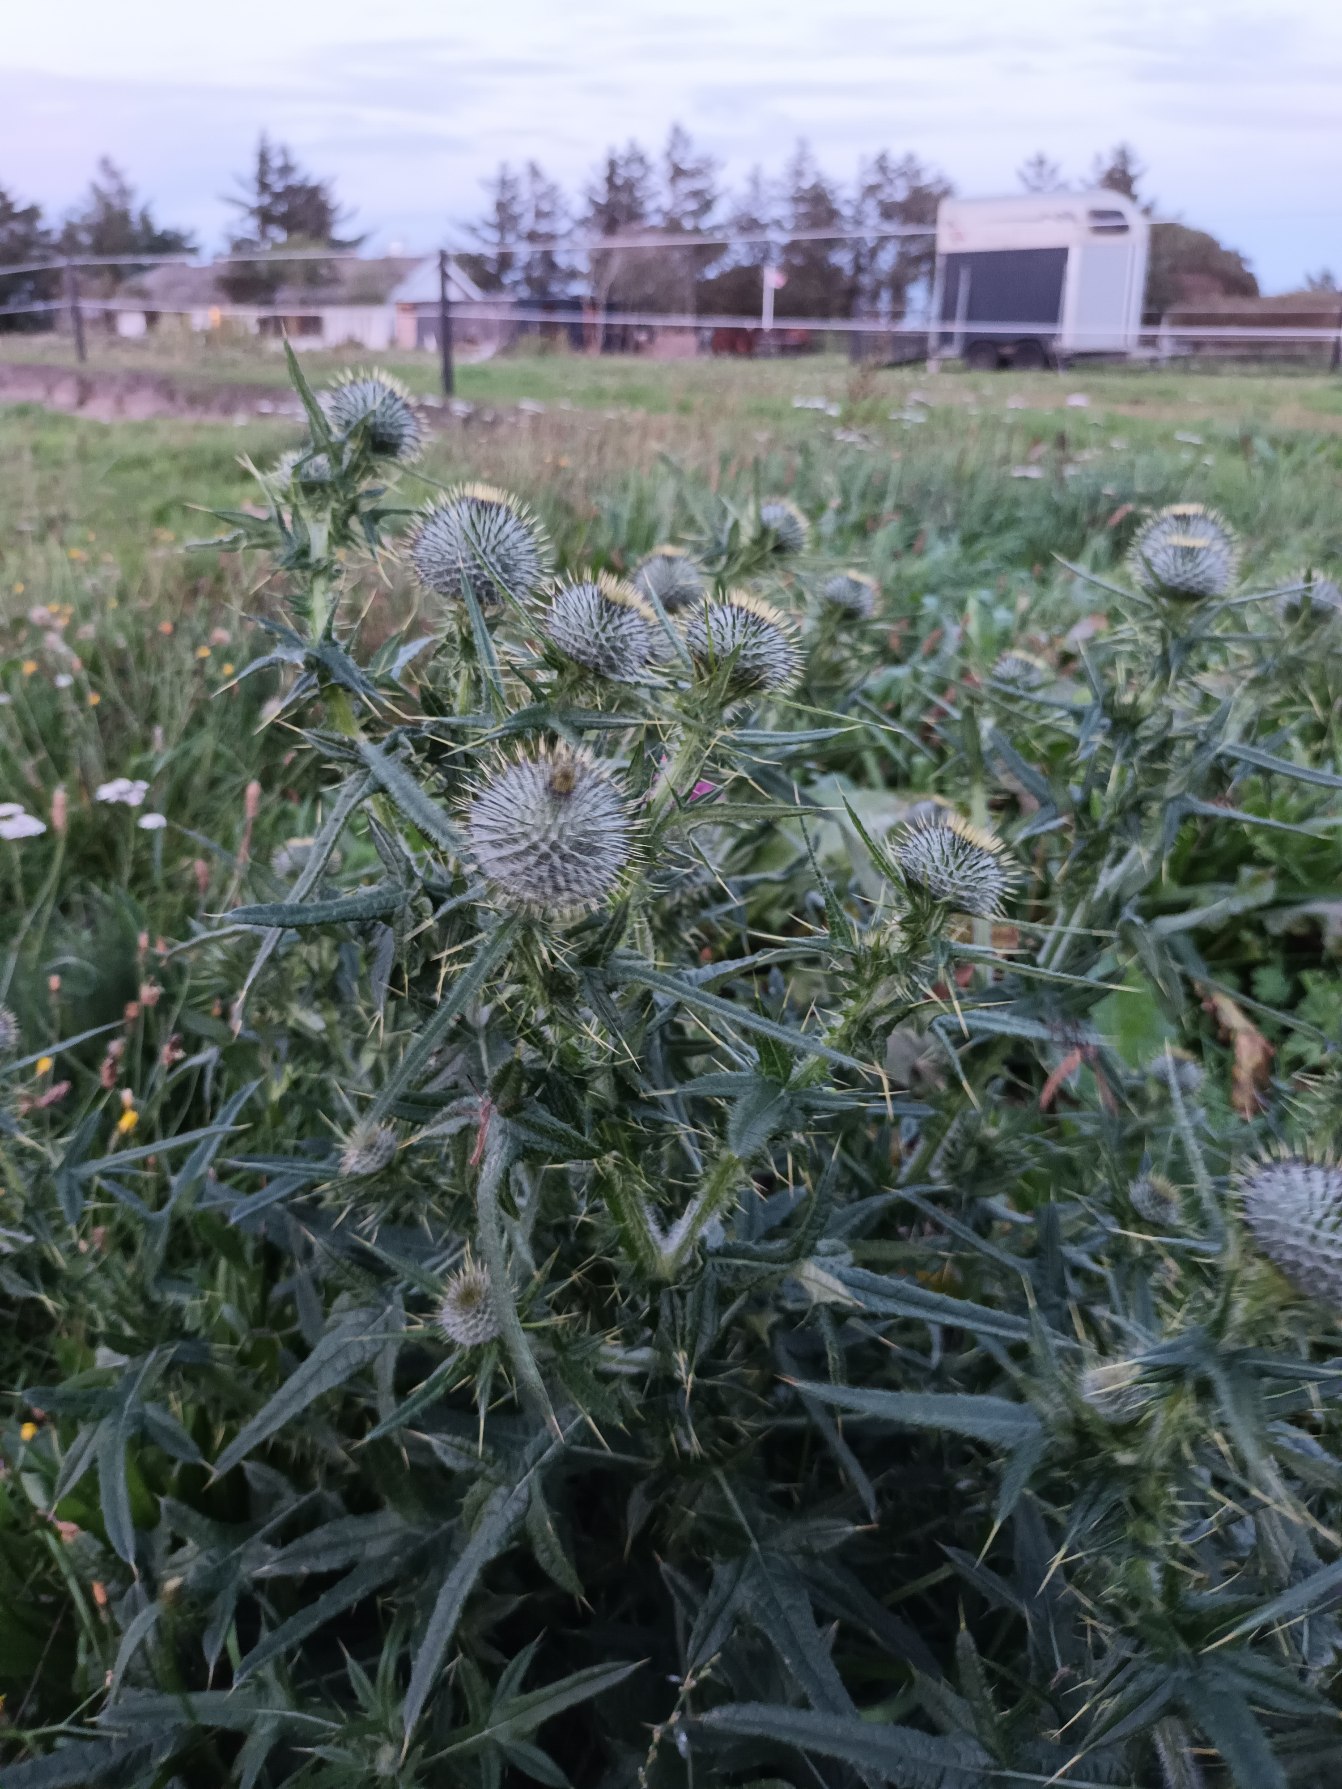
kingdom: Plantae
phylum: Tracheophyta
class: Magnoliopsida
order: Asterales
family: Asteraceae
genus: Cirsium
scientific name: Cirsium vulgare
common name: Horse-tidsel
